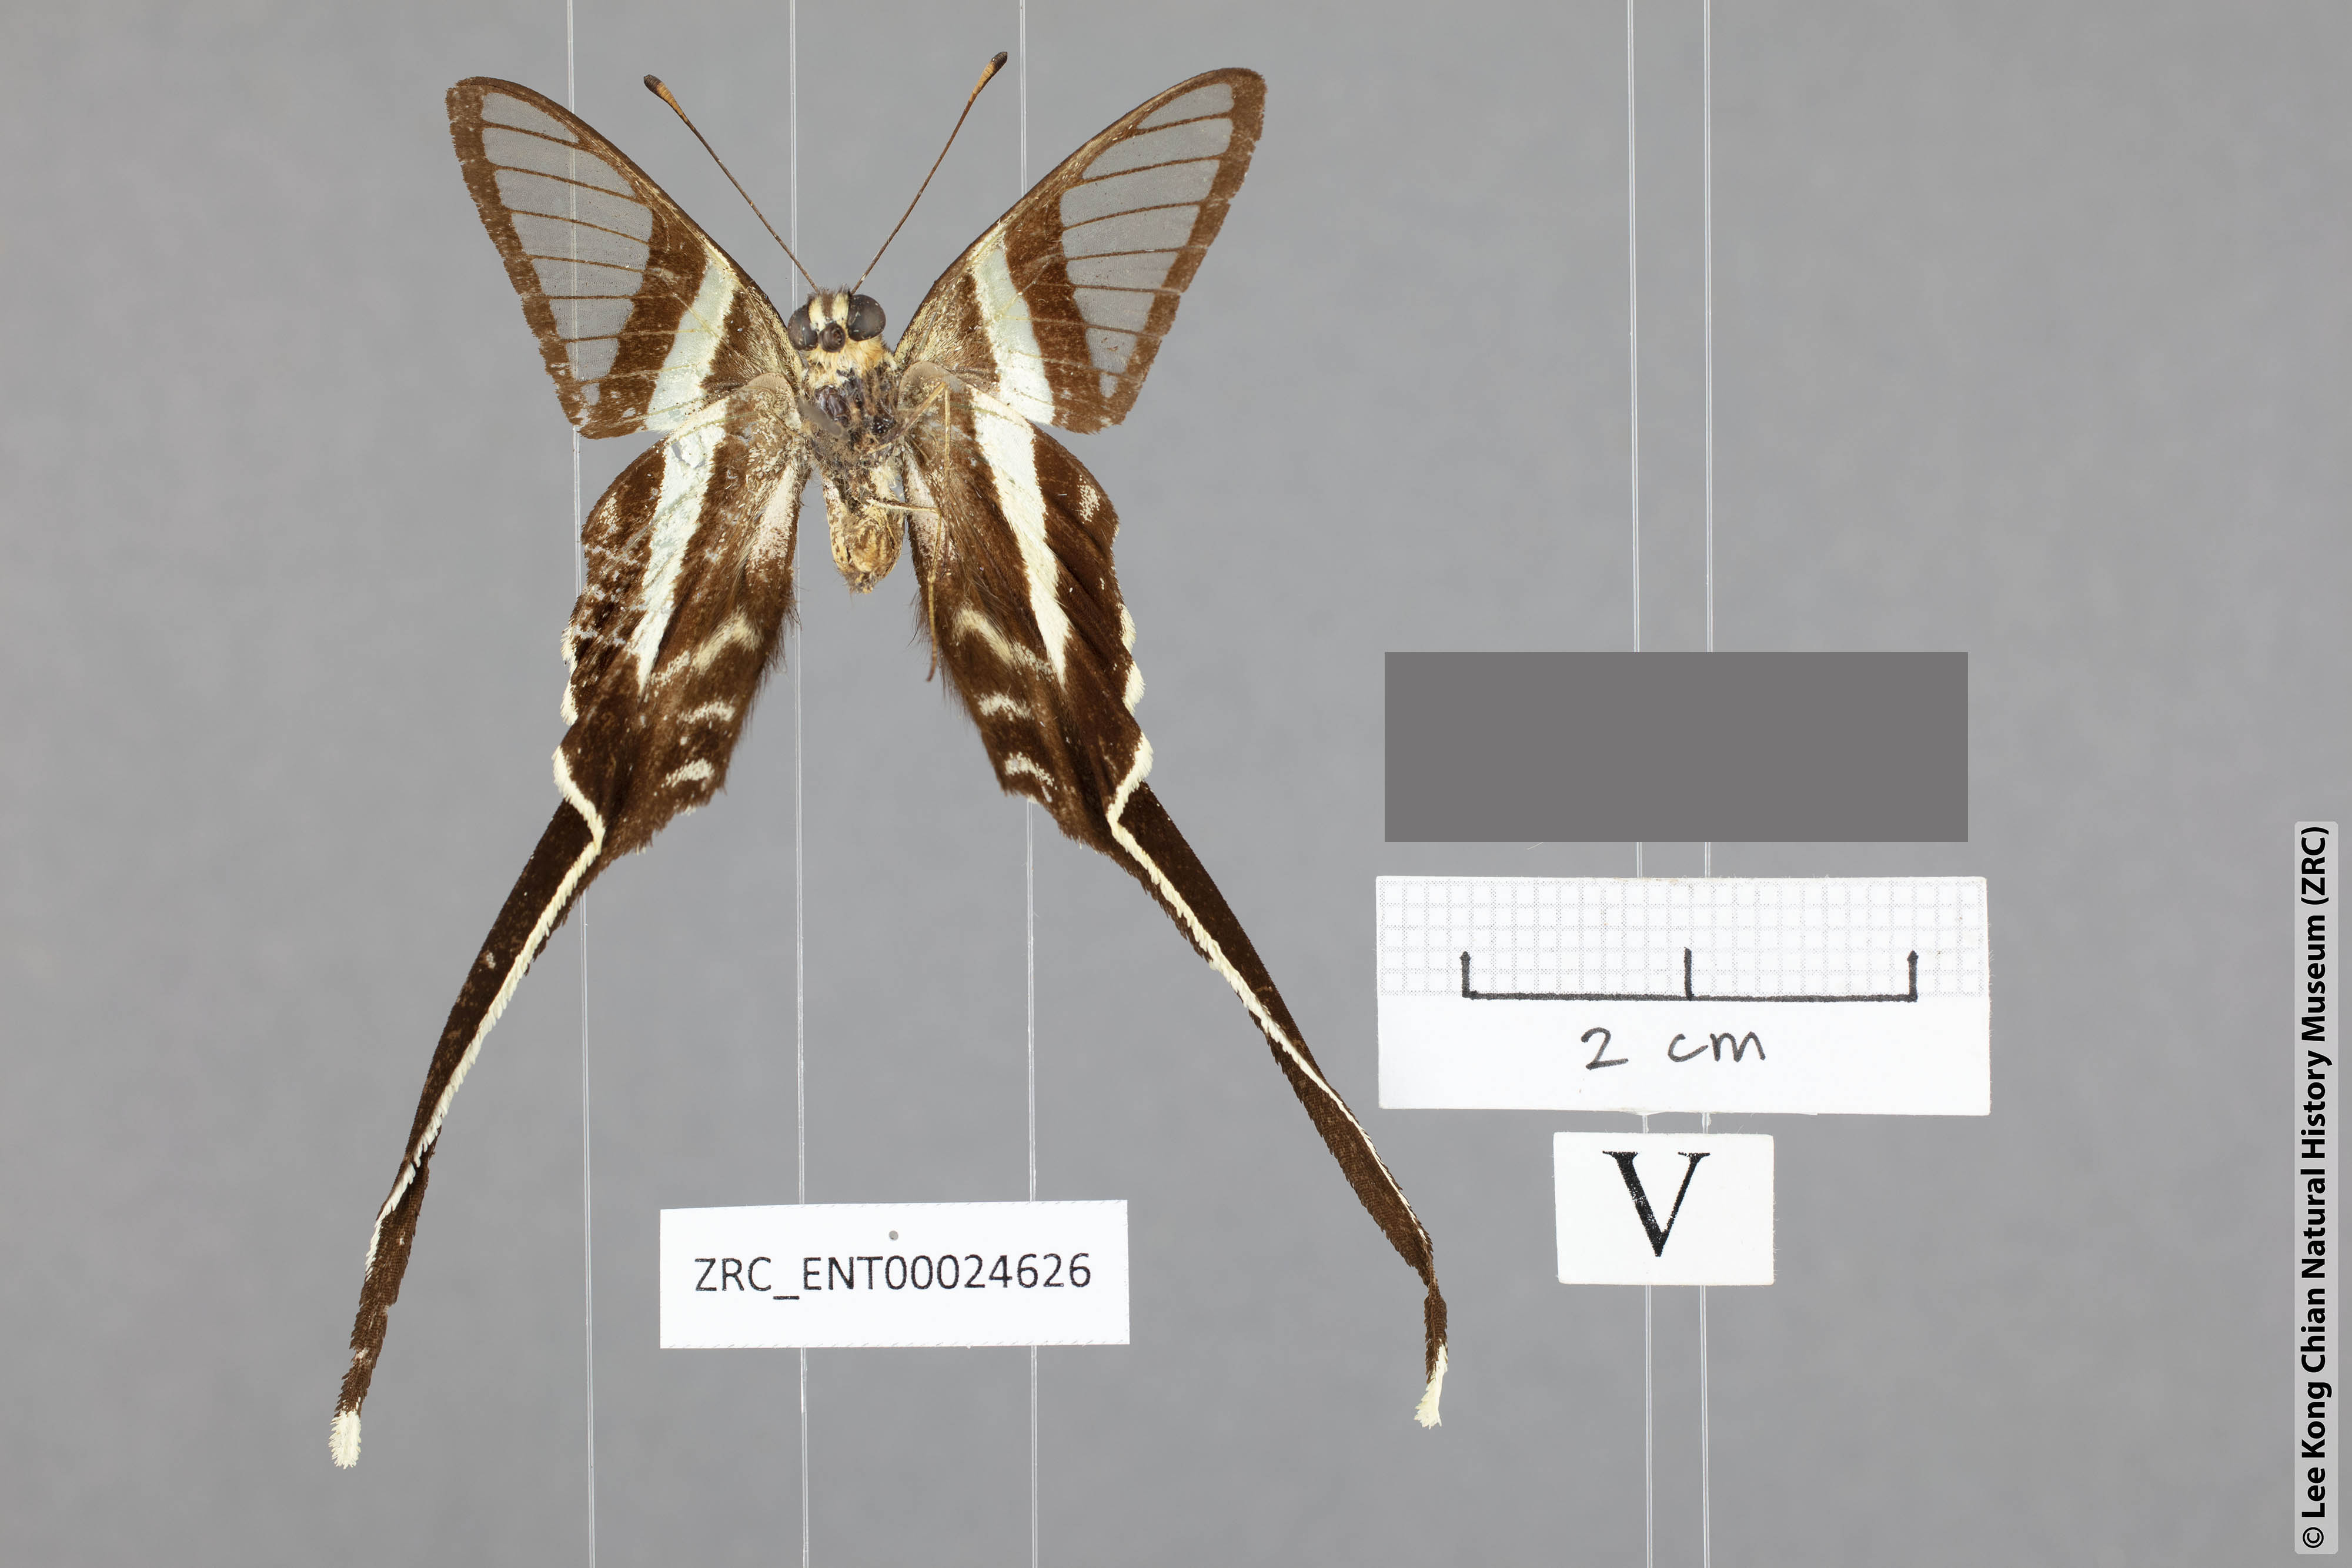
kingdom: Animalia
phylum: Arthropoda
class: Insecta
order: Lepidoptera
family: Papilionidae
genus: Lamproptera
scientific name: Lamproptera meges
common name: Green dragontail
